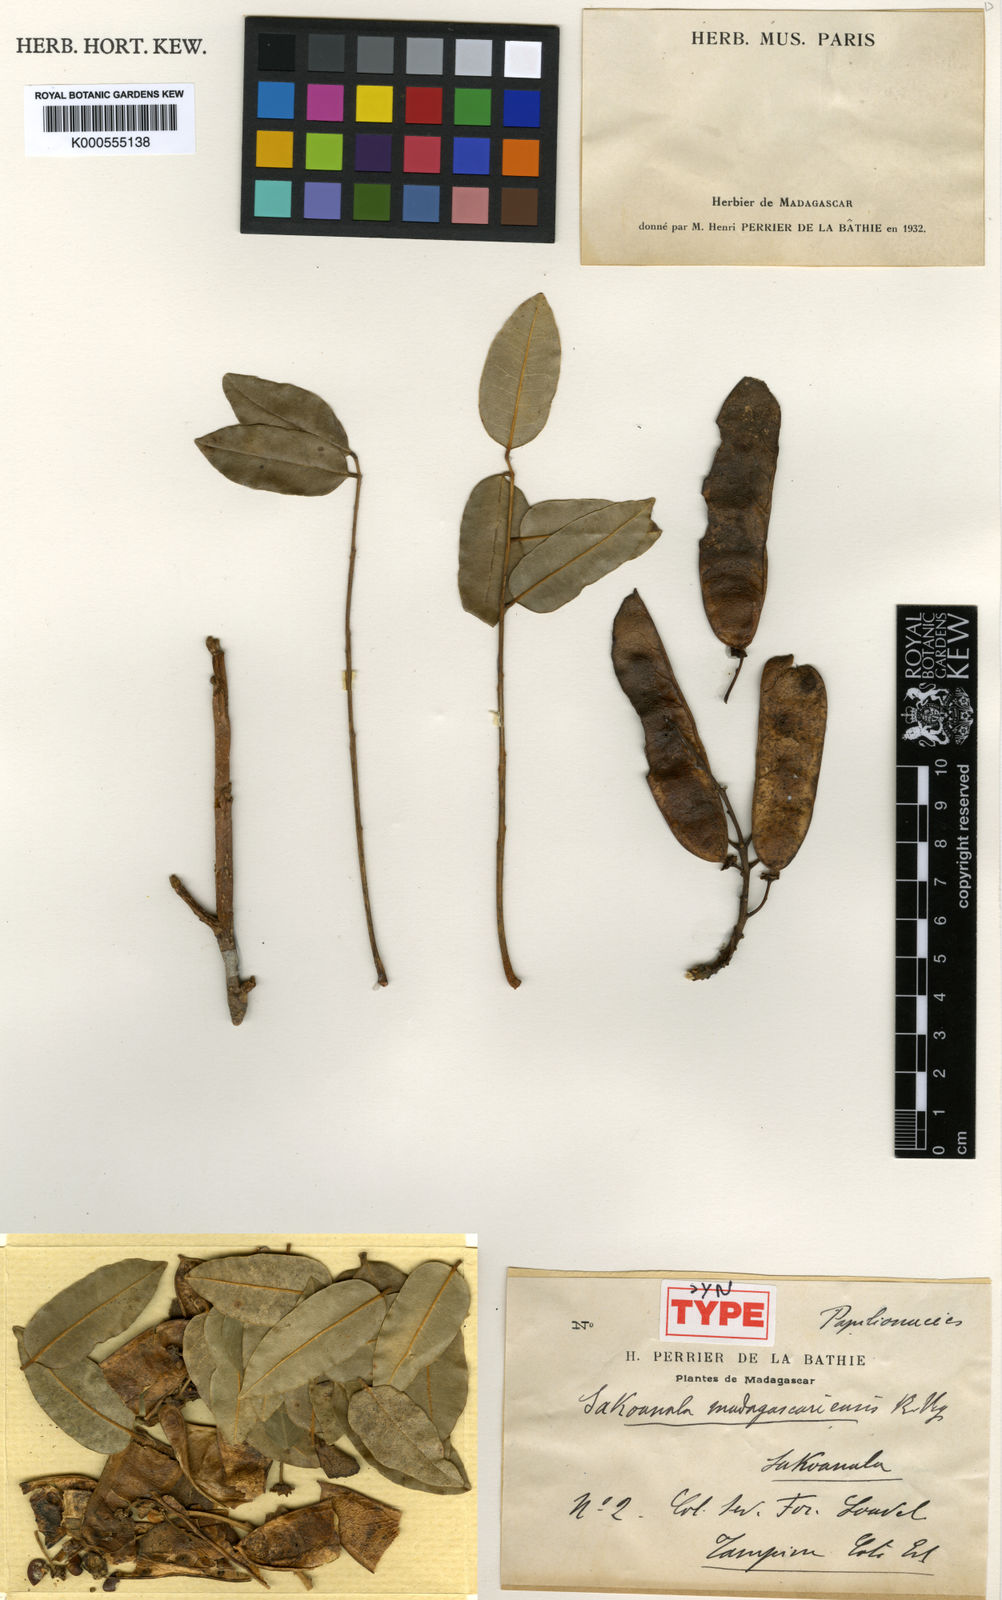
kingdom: Plantae
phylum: Tracheophyta
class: Magnoliopsida
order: Fabales
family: Fabaceae
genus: Sakoanala
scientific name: Sakoanala madagascariensis
